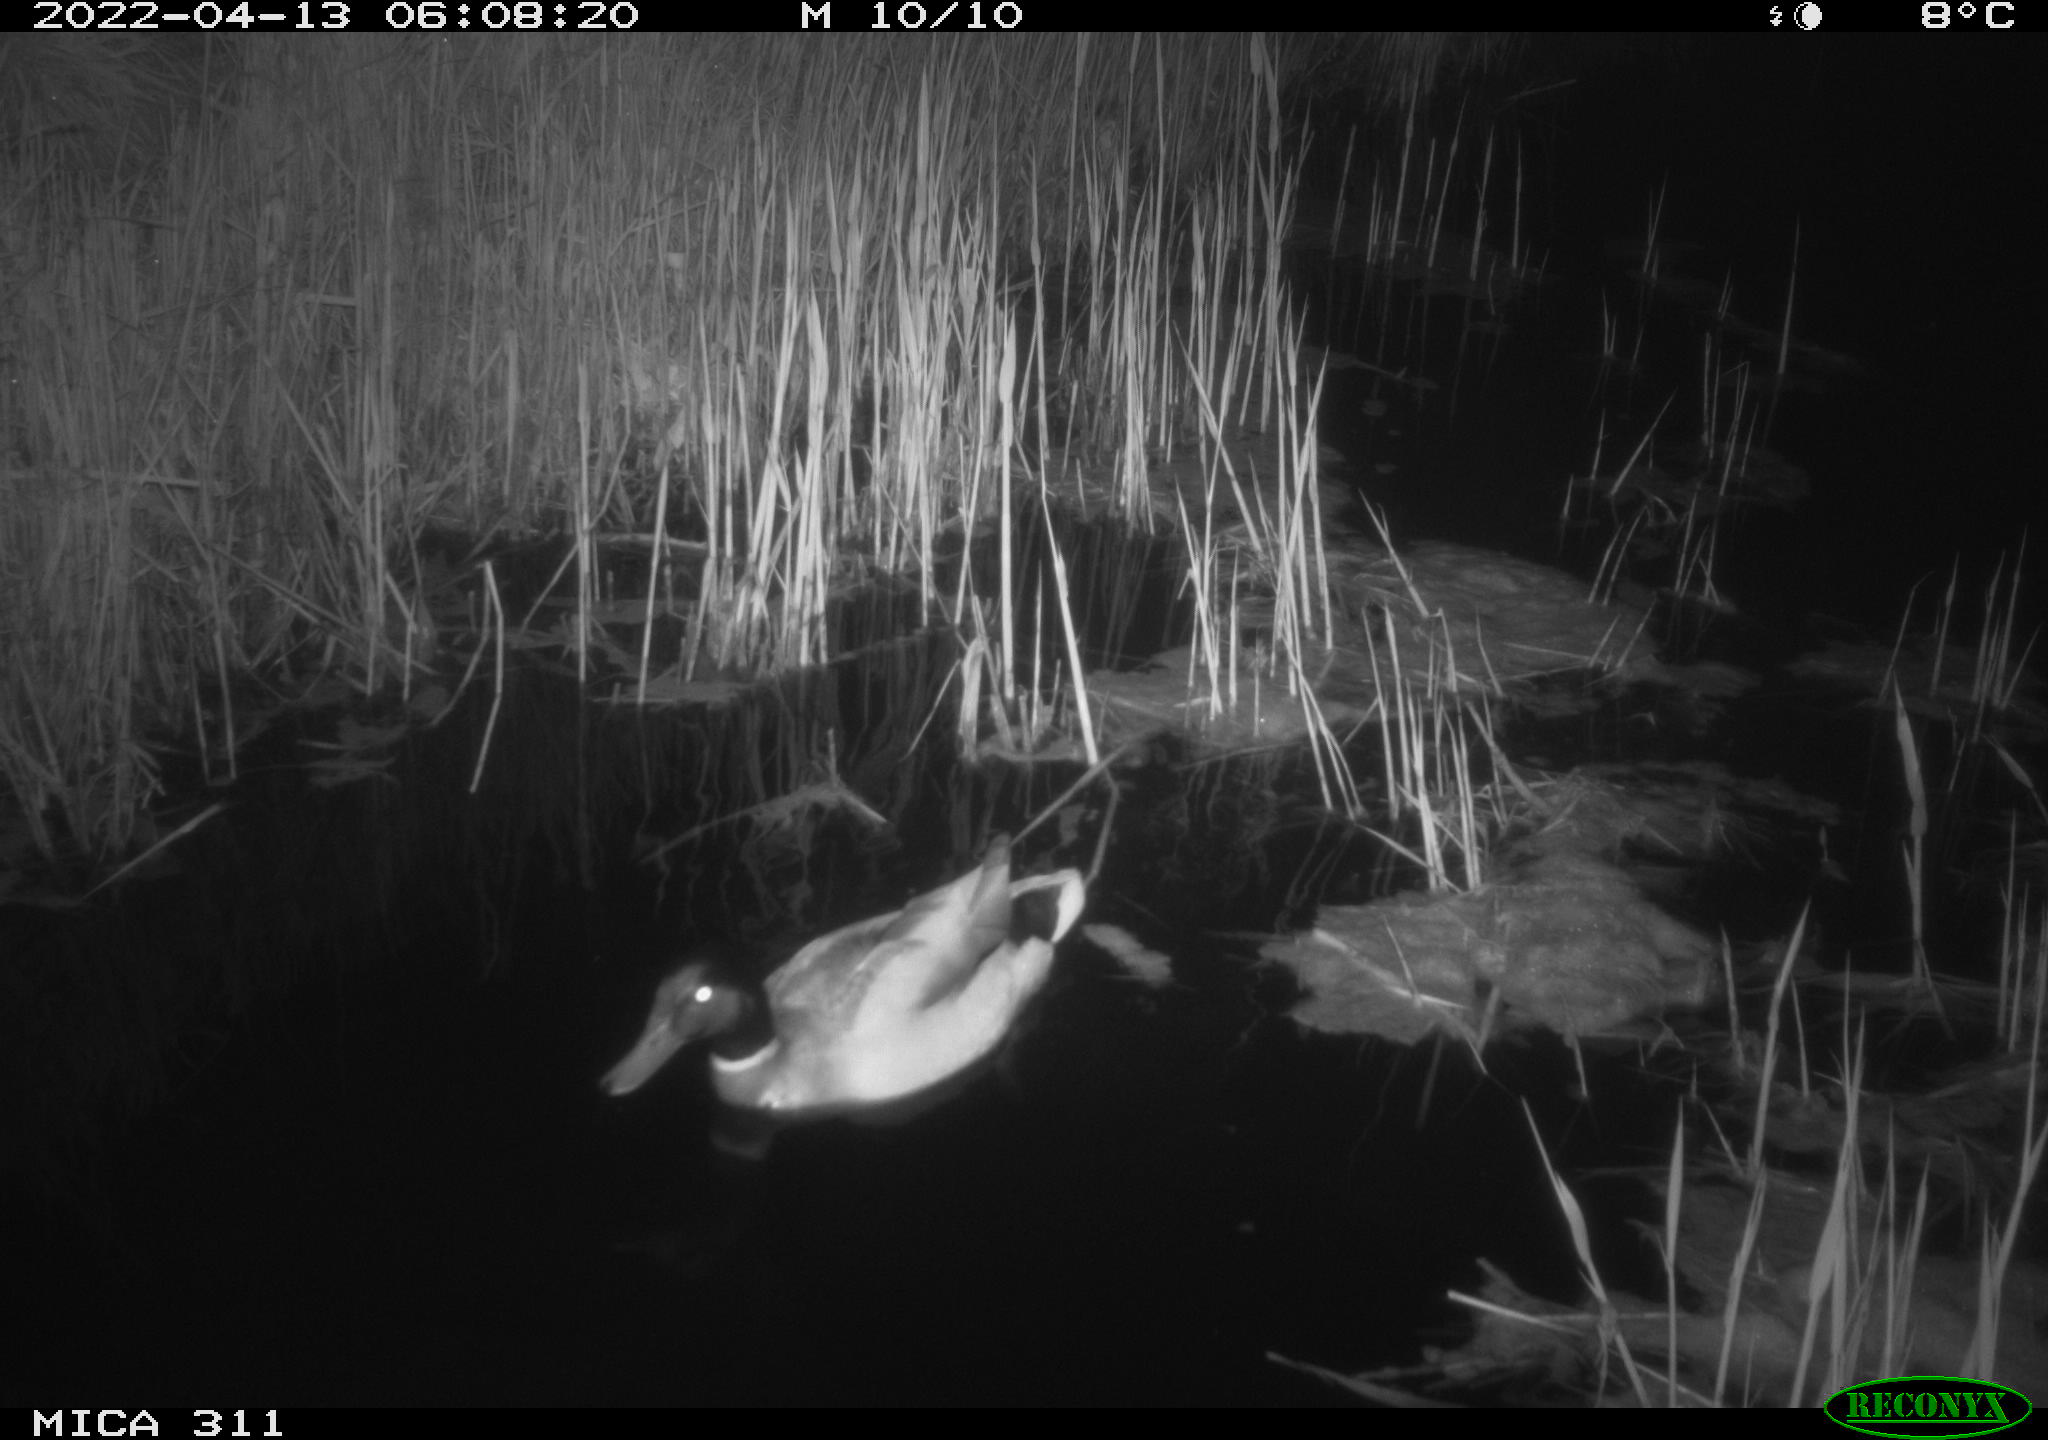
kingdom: Animalia
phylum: Chordata
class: Aves
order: Anseriformes
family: Anatidae
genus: Anas
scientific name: Anas
